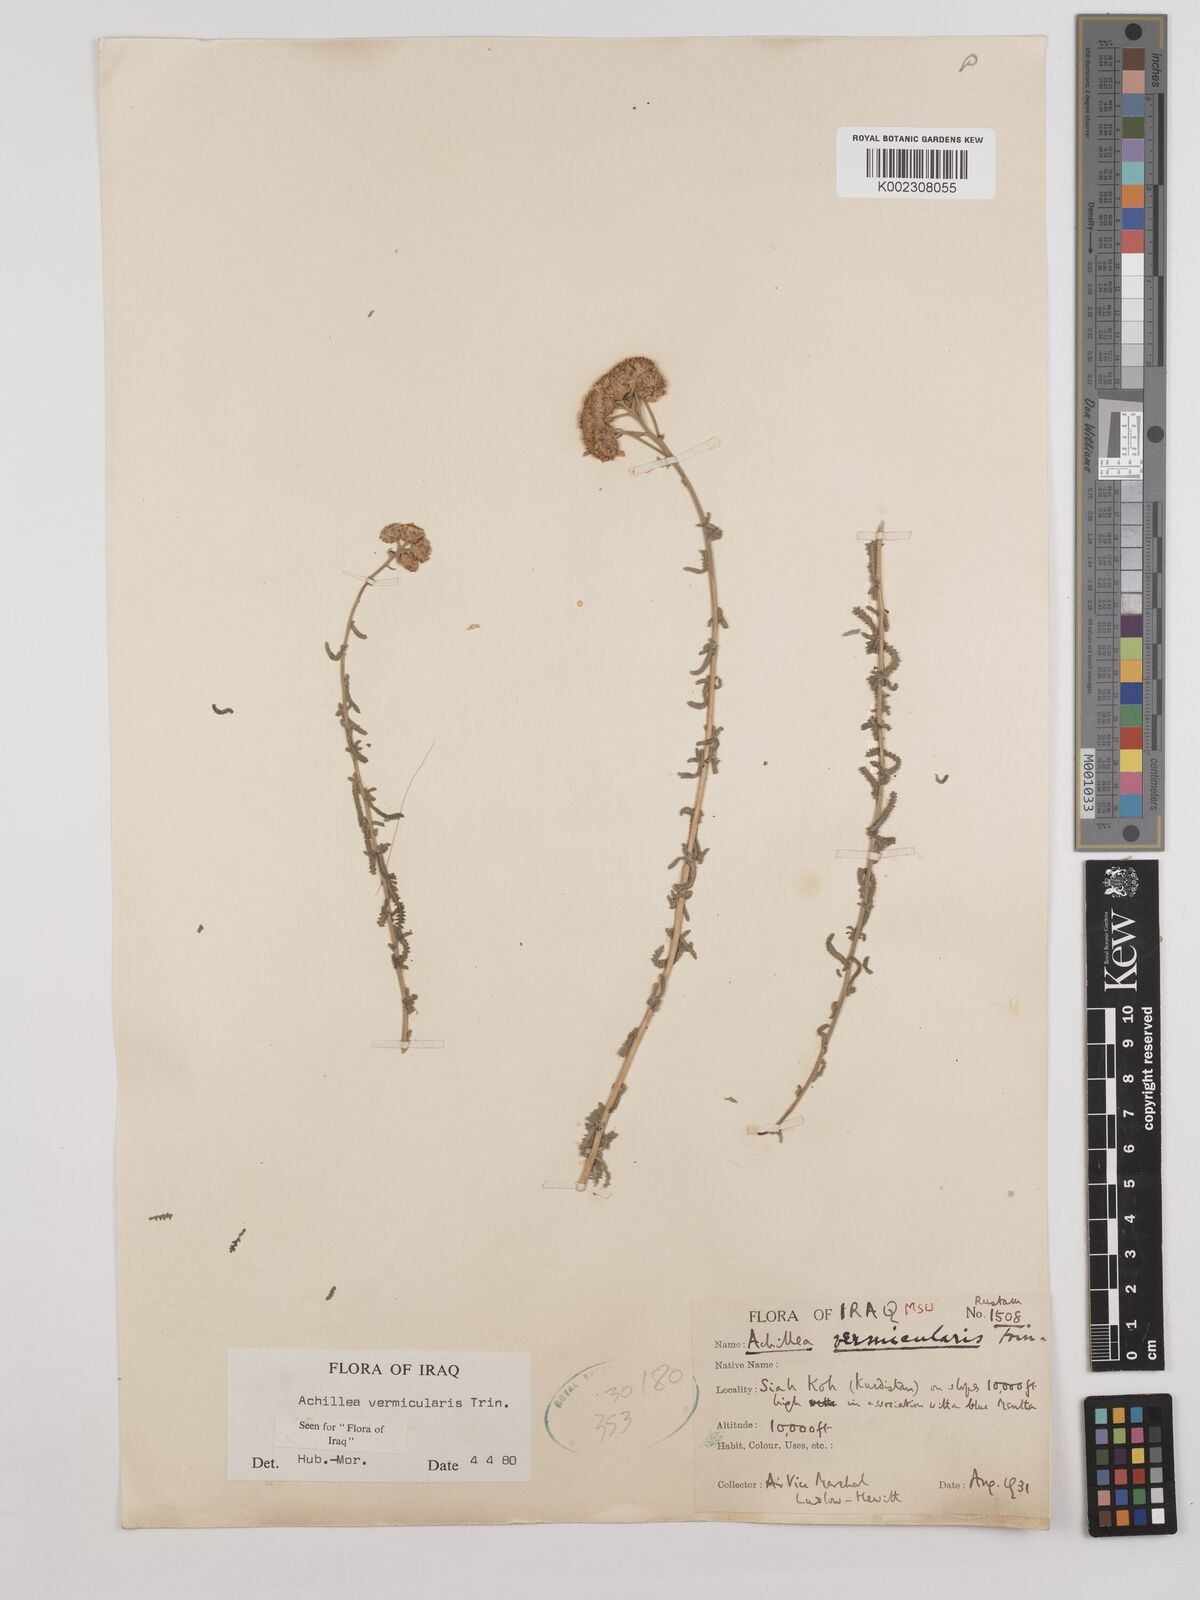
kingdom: Plantae
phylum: Tracheophyta
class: Magnoliopsida
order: Asterales
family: Asteraceae
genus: Achillea
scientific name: Achillea vermicularis
